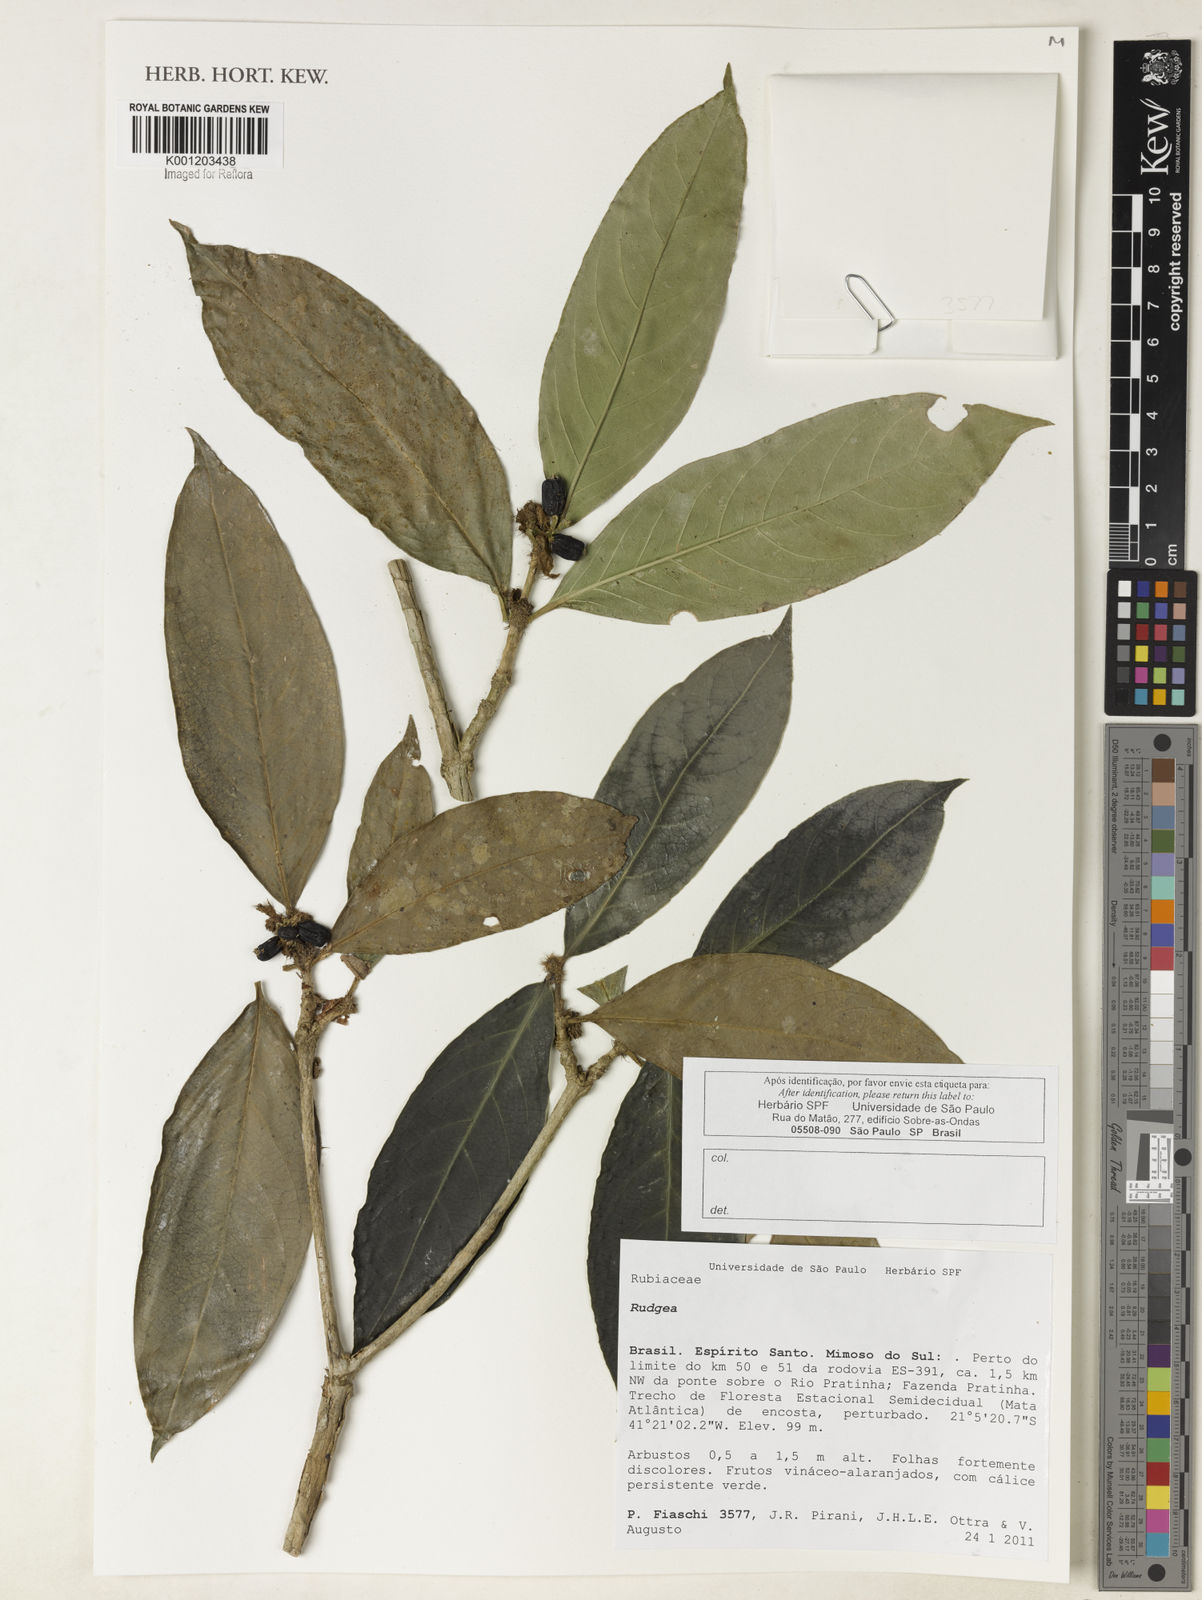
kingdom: Plantae
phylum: Tracheophyta
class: Magnoliopsida
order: Gentianales
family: Rubiaceae
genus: Rudgea
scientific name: Rudgea
